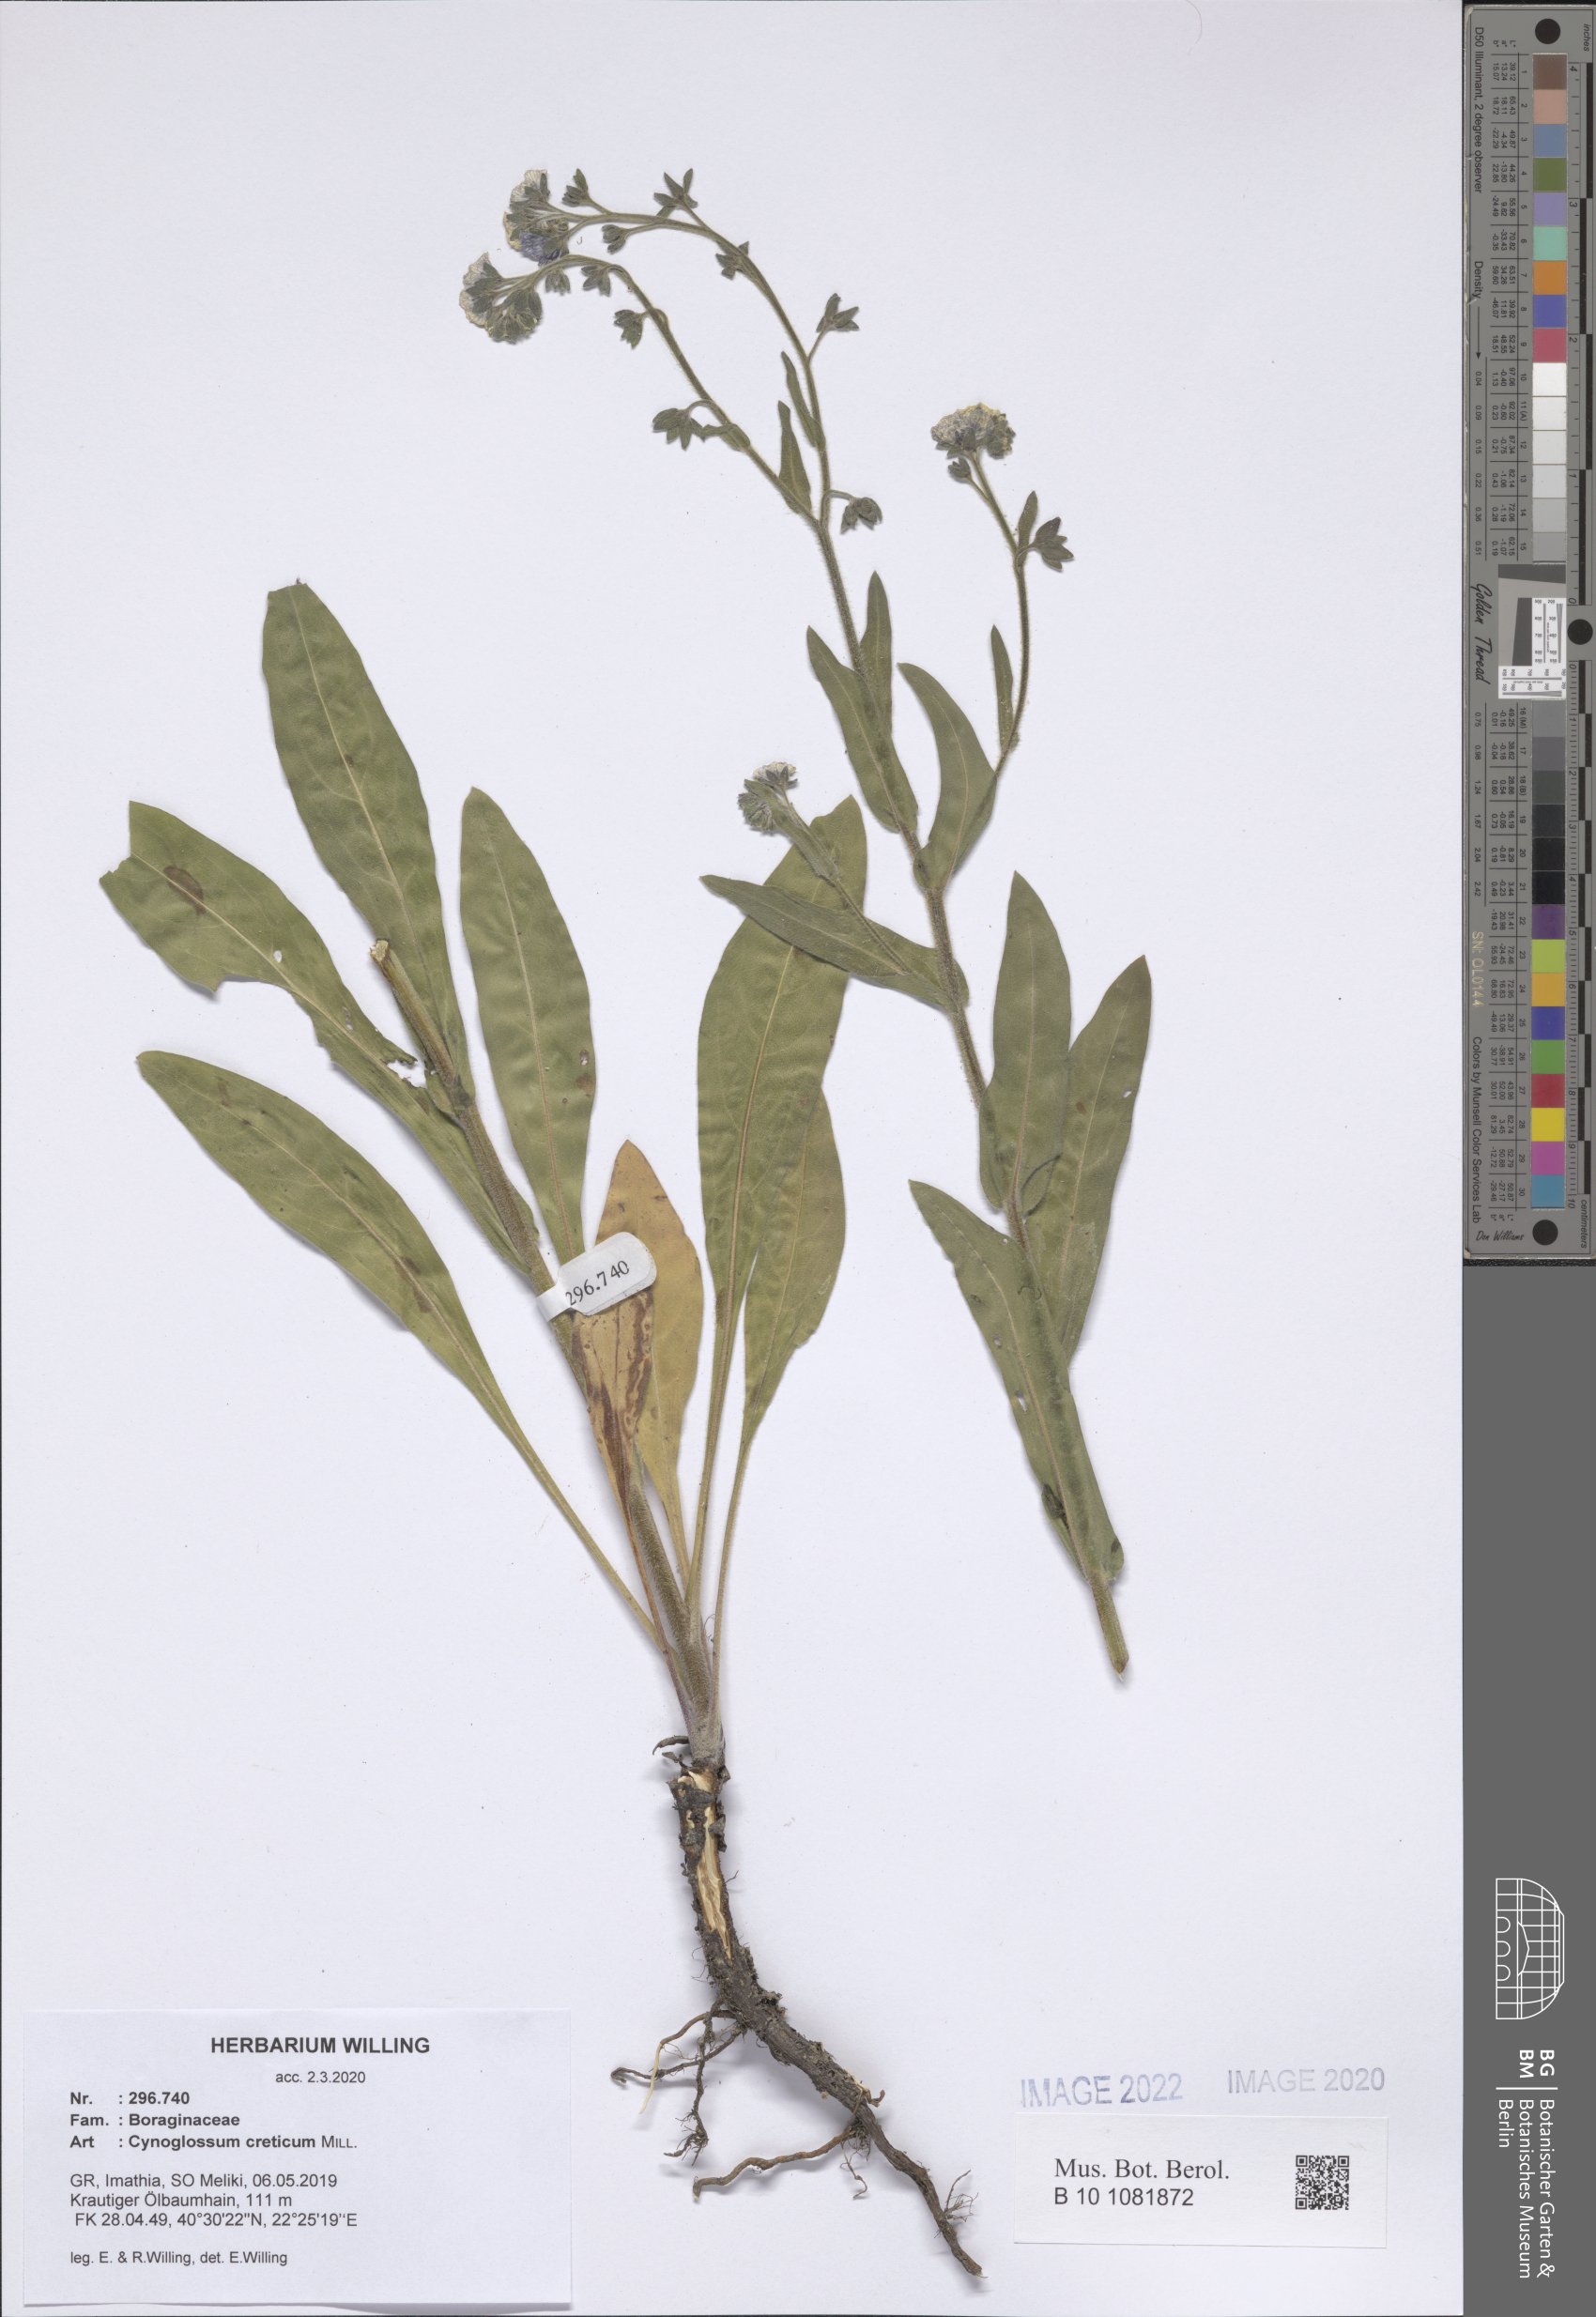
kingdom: Plantae
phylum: Tracheophyta
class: Magnoliopsida
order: Boraginales
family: Boraginaceae
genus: Cynoglossum
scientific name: Cynoglossum creticum
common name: Blue hound's tongue
